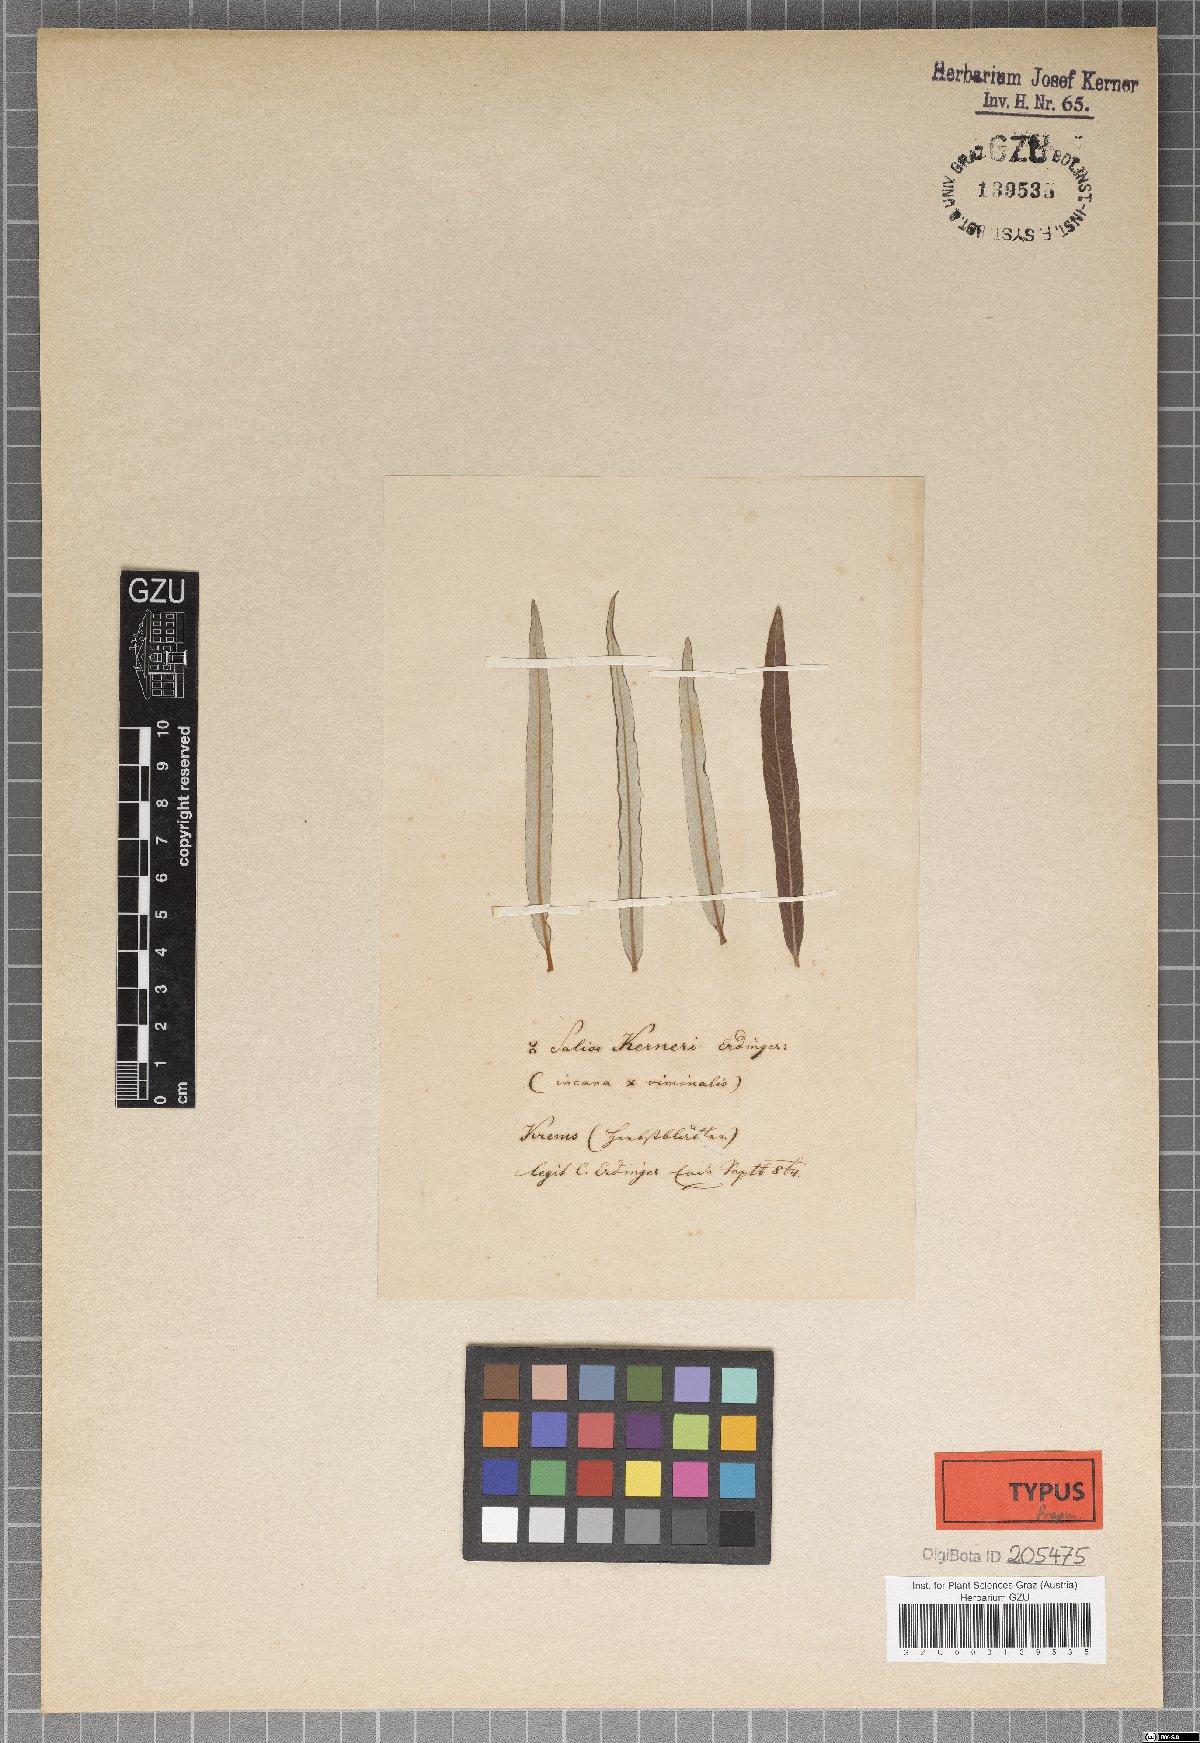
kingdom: Plantae
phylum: Tracheophyta
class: Magnoliopsida
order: Malpighiales
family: Salicaceae
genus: Salix
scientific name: Salix kerneri
